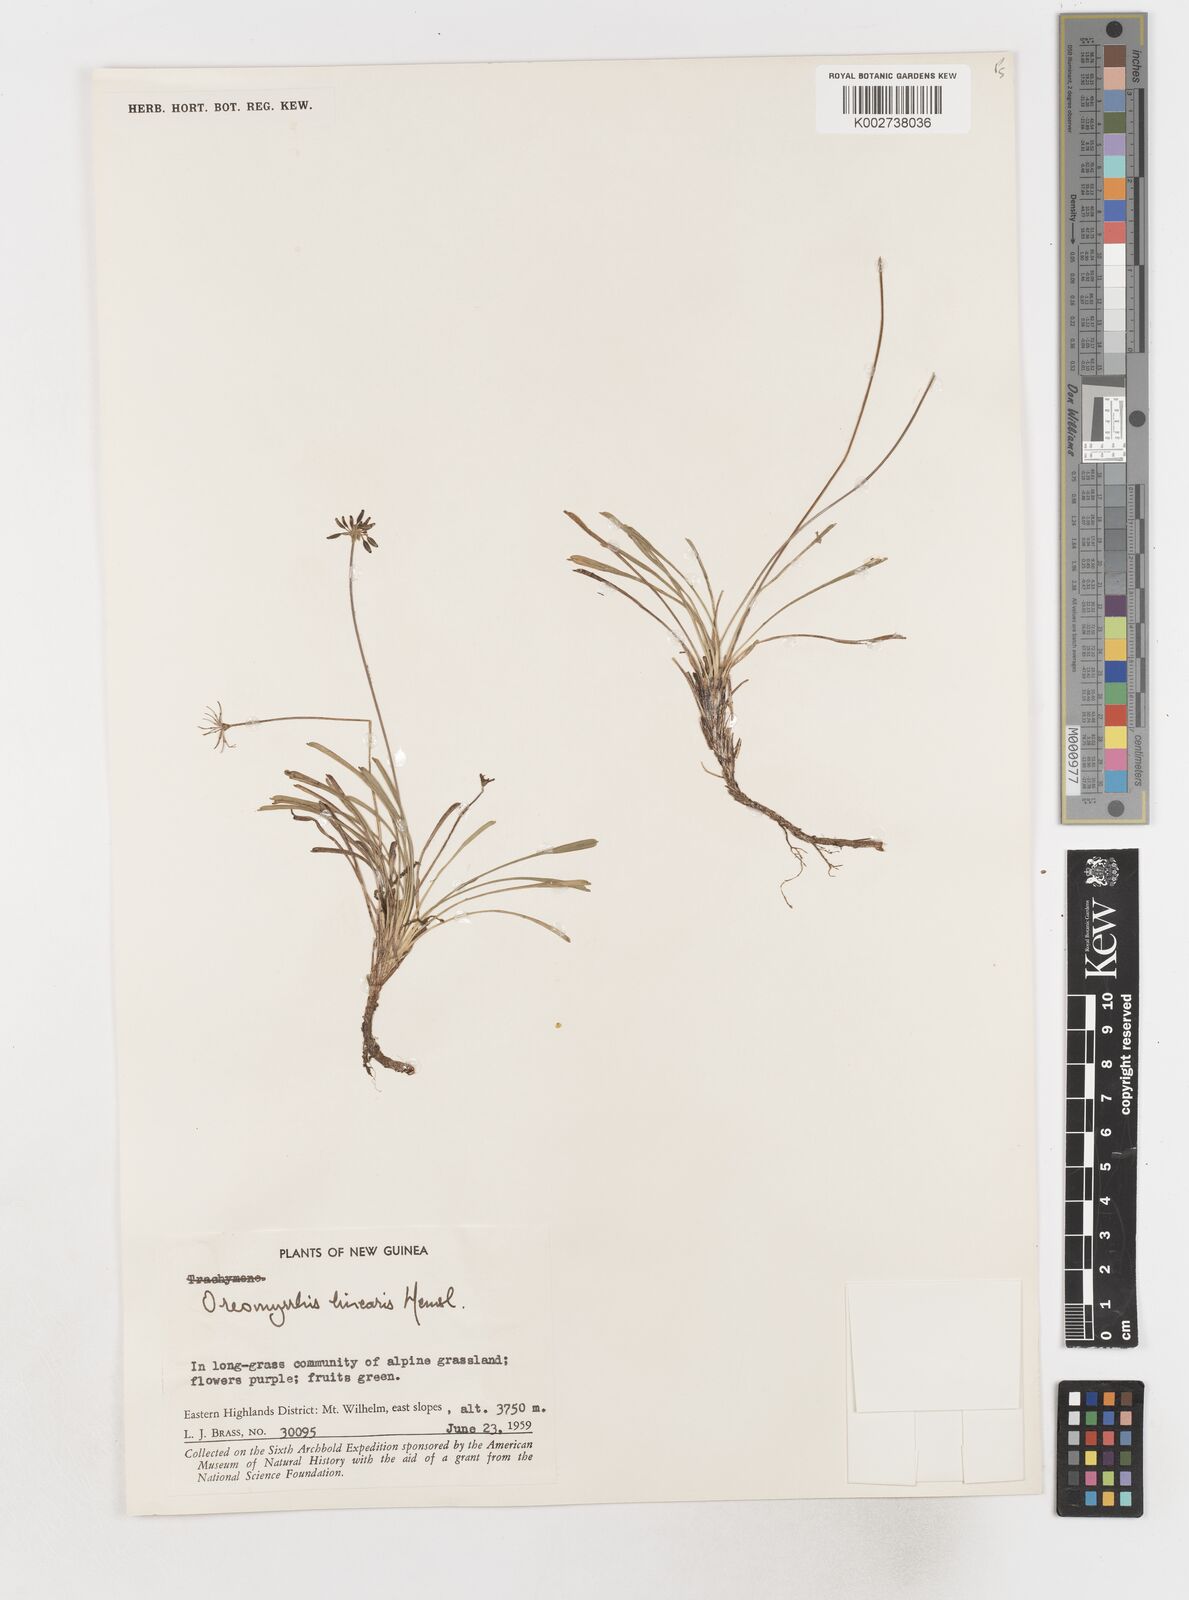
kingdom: Plantae
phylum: Tracheophyta
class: Magnoliopsida
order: Apiales
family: Apiaceae
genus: Chaerophyllum
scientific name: Chaerophyllum lineare
